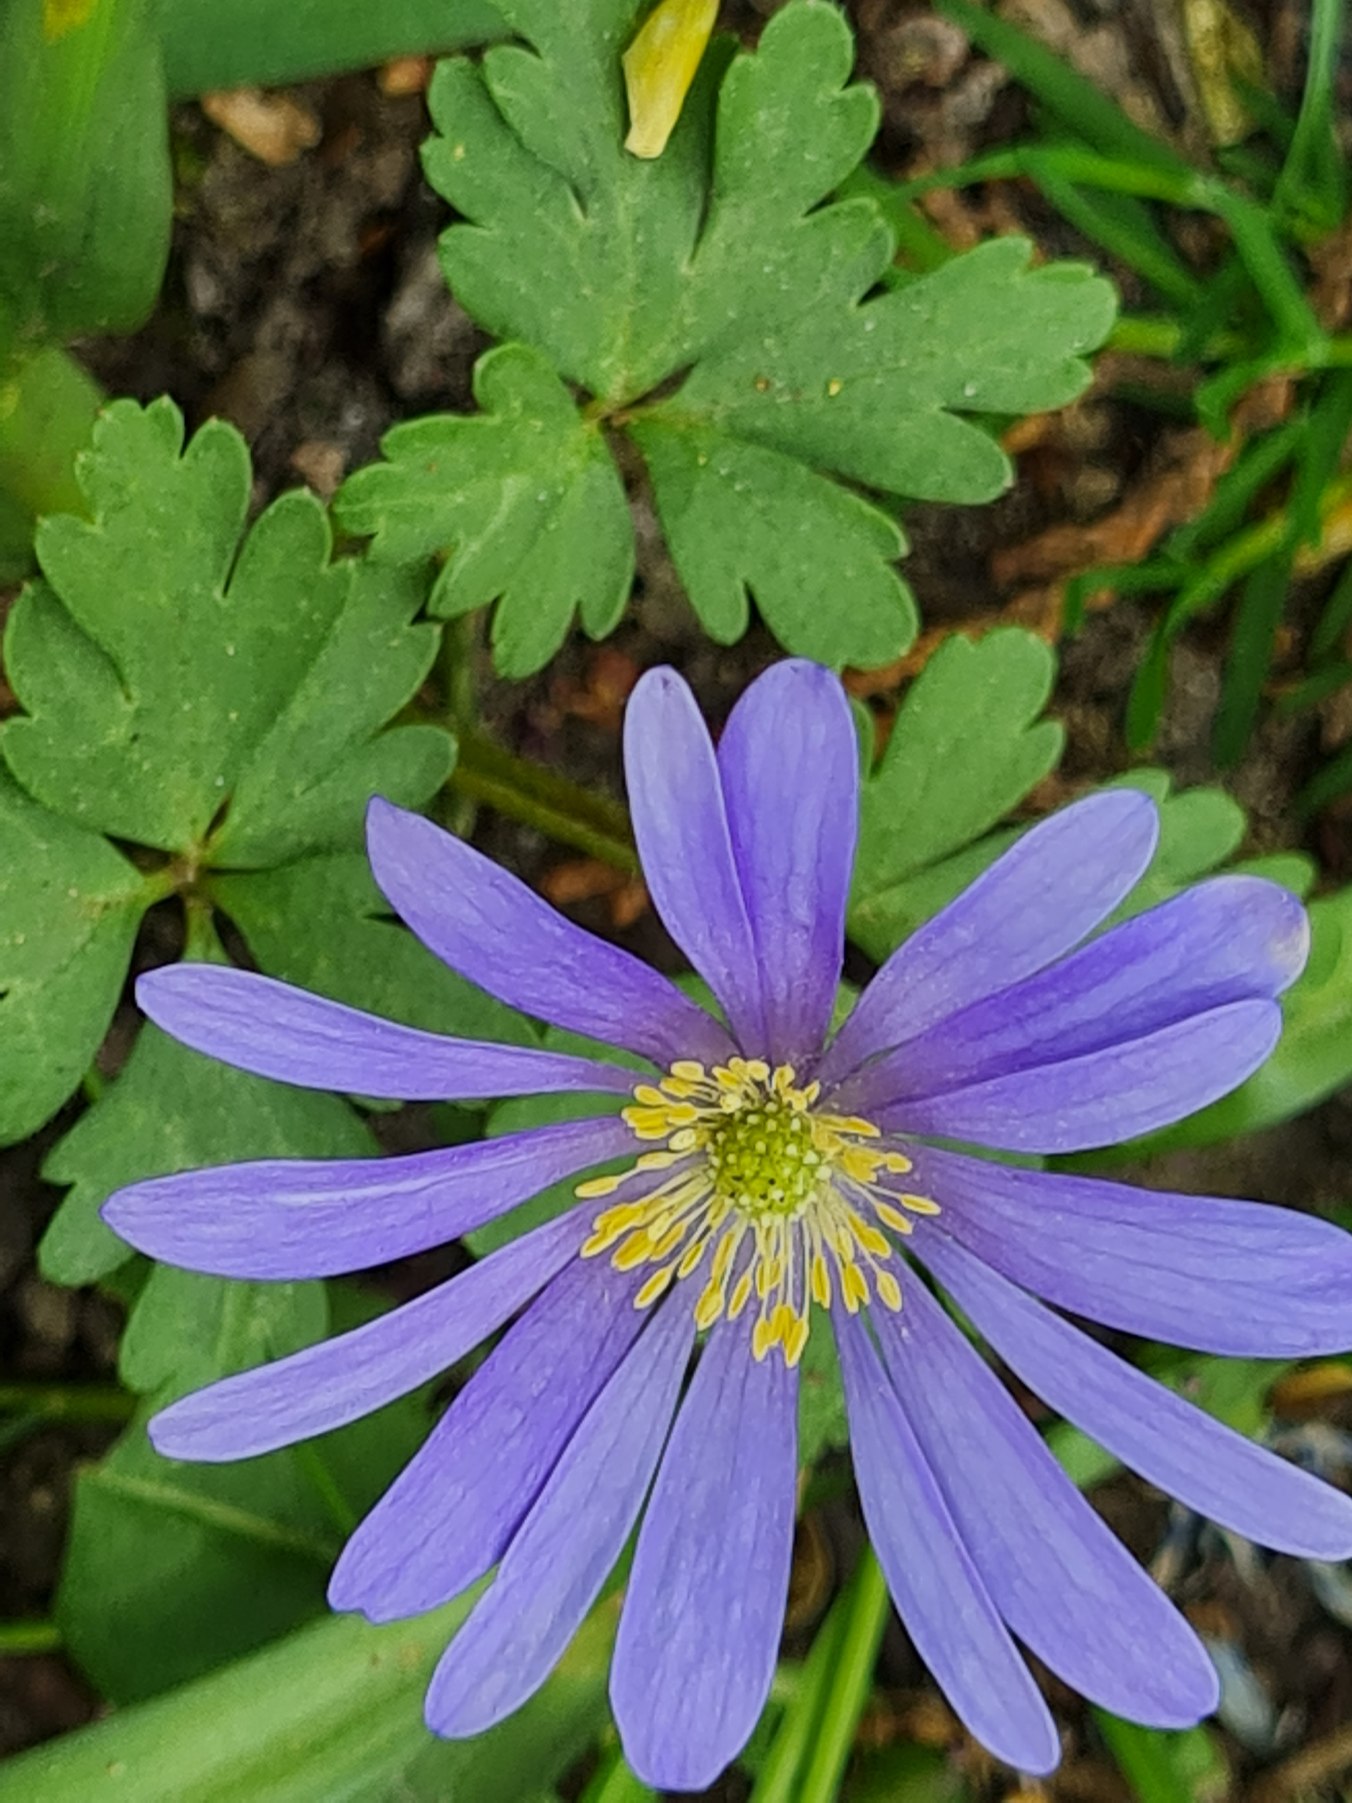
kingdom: Plantae
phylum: Tracheophyta
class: Magnoliopsida
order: Ranunculales
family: Ranunculaceae
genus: Anemone
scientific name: Anemone
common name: Anemone (Anemone-slægten)
